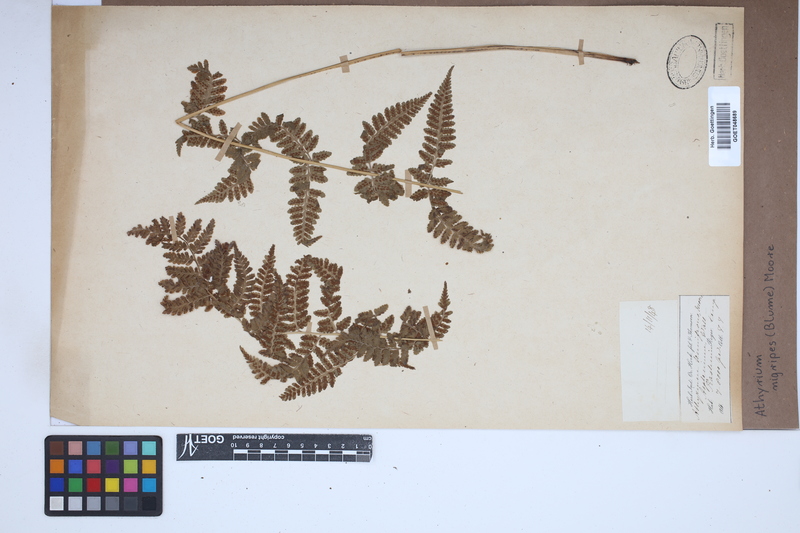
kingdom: Plantae
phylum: Tracheophyta
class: Polypodiopsida
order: Polypodiales
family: Athyriaceae
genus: Athyrium
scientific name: Athyrium nigripes
